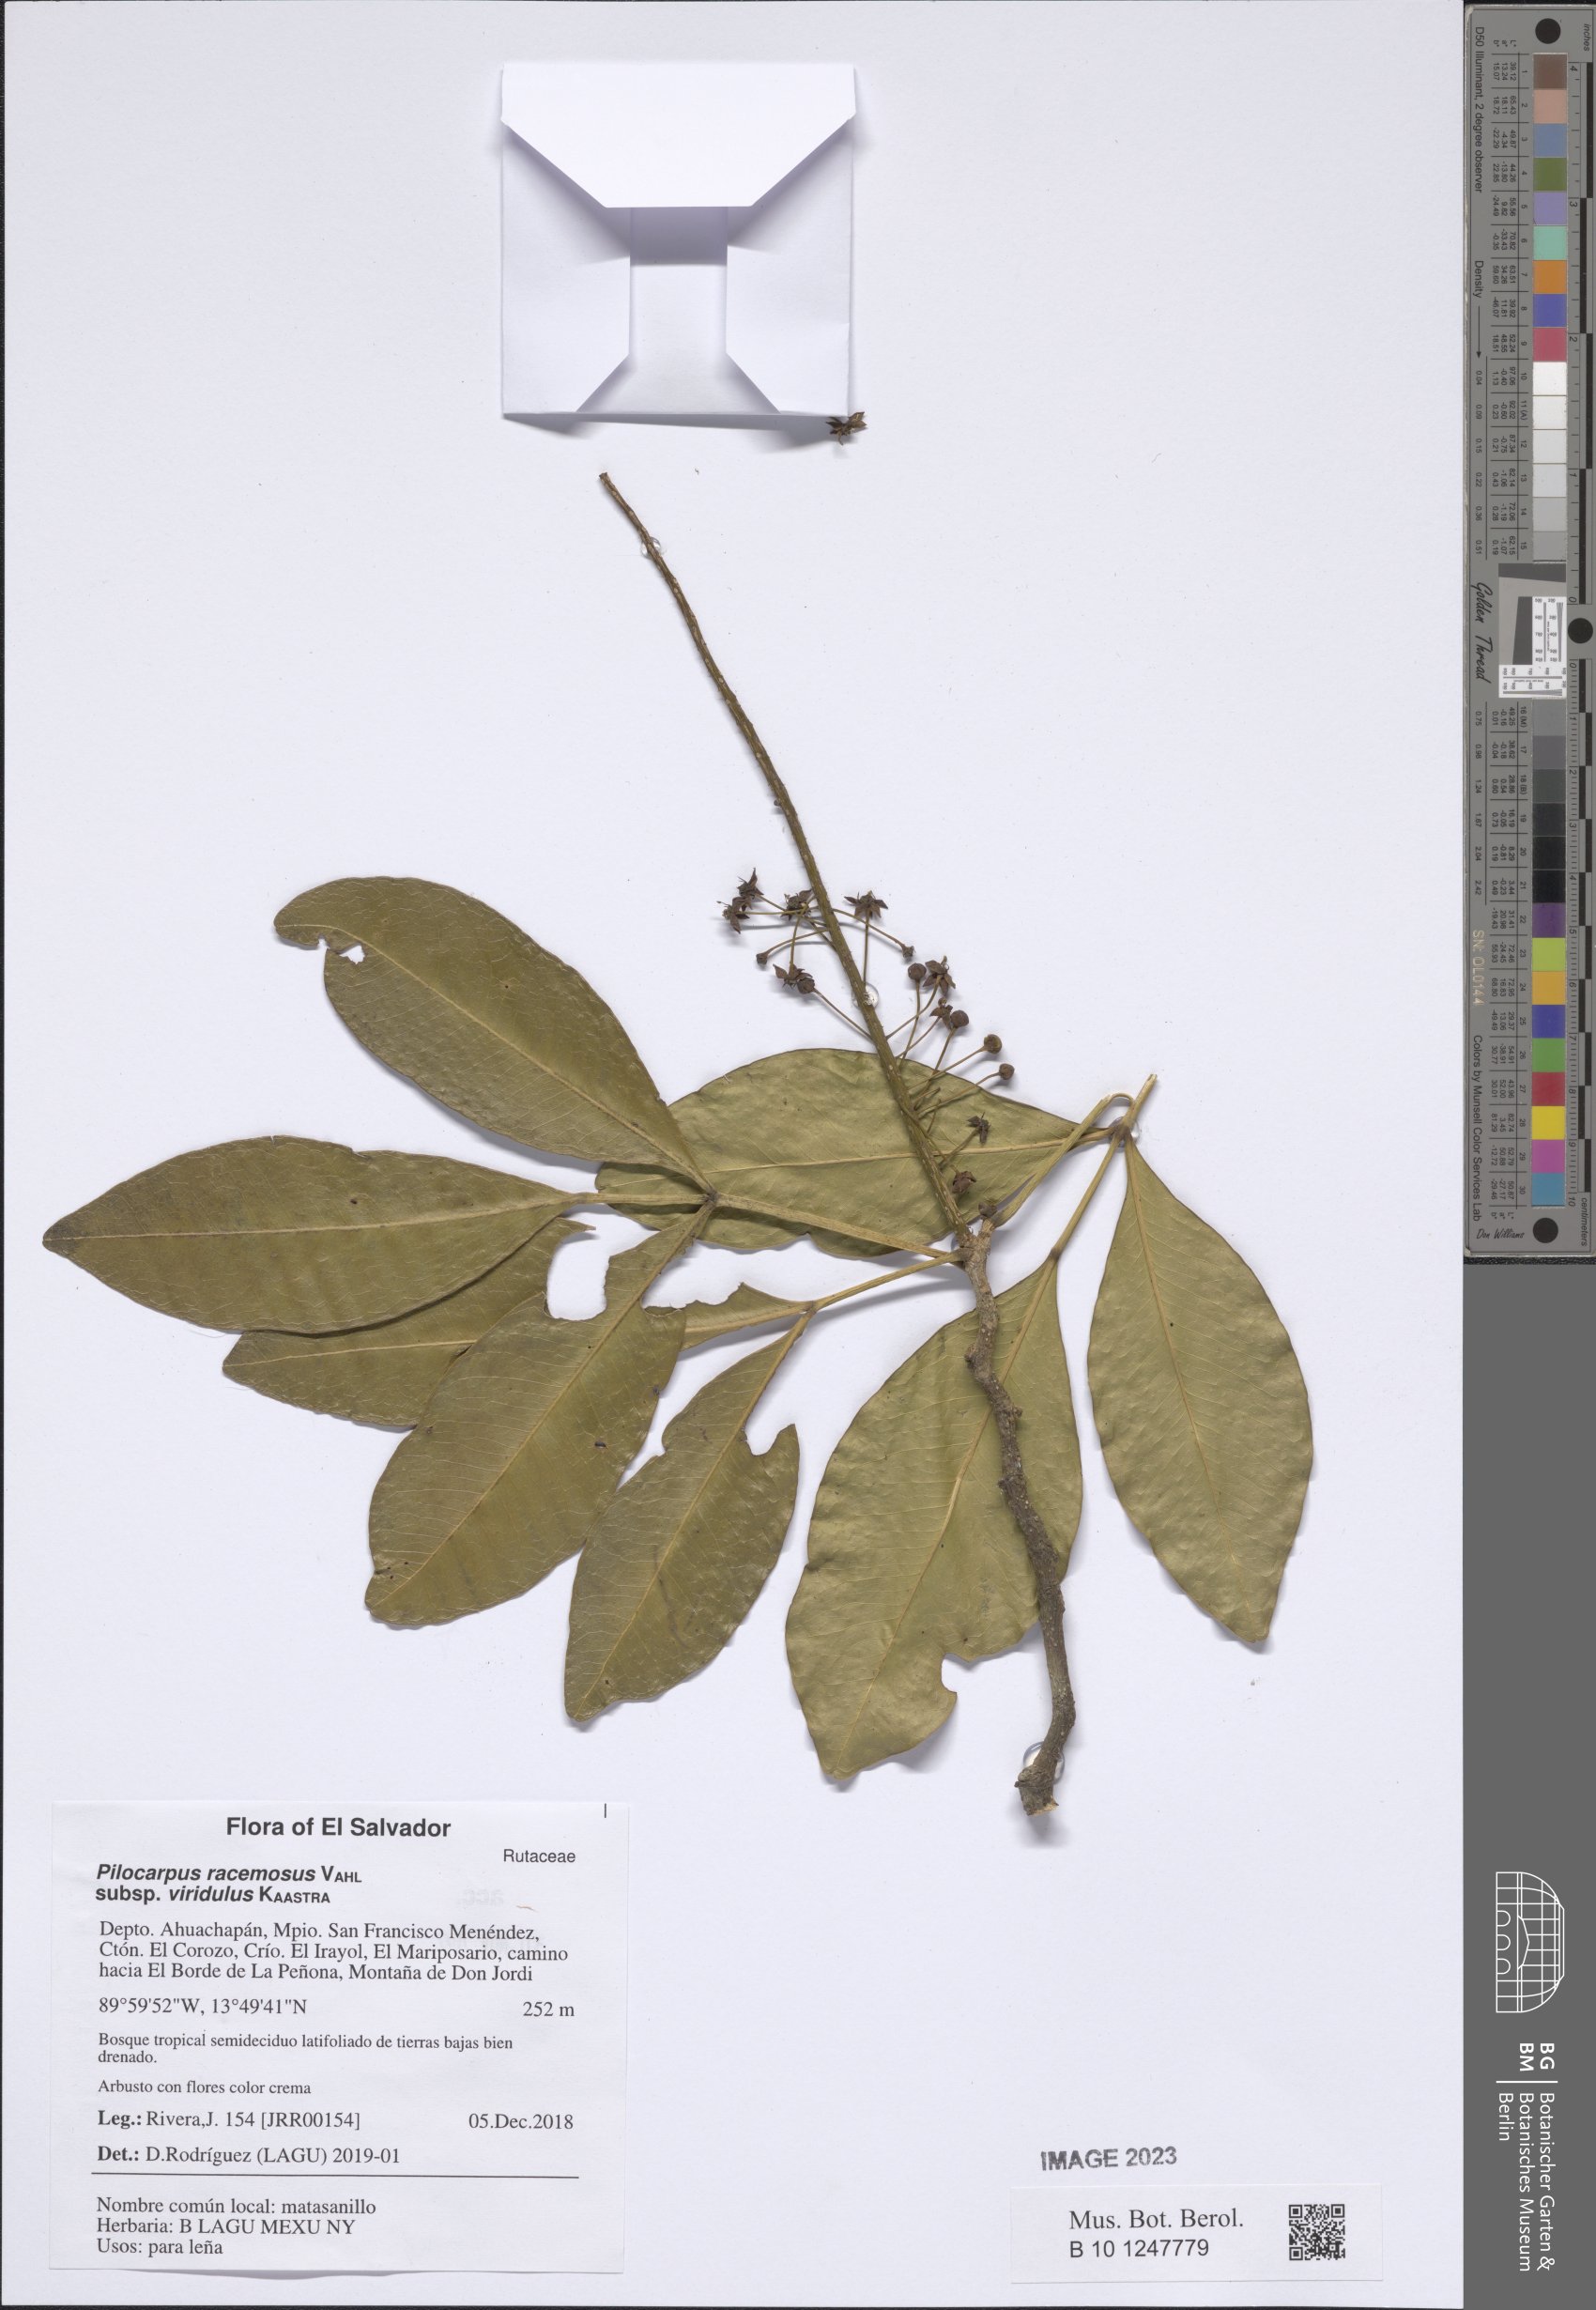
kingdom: Plantae
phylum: Tracheophyta
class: Magnoliopsida
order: Sapindales
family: Rutaceae
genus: Pilocarpus
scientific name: Pilocarpus racemosus
